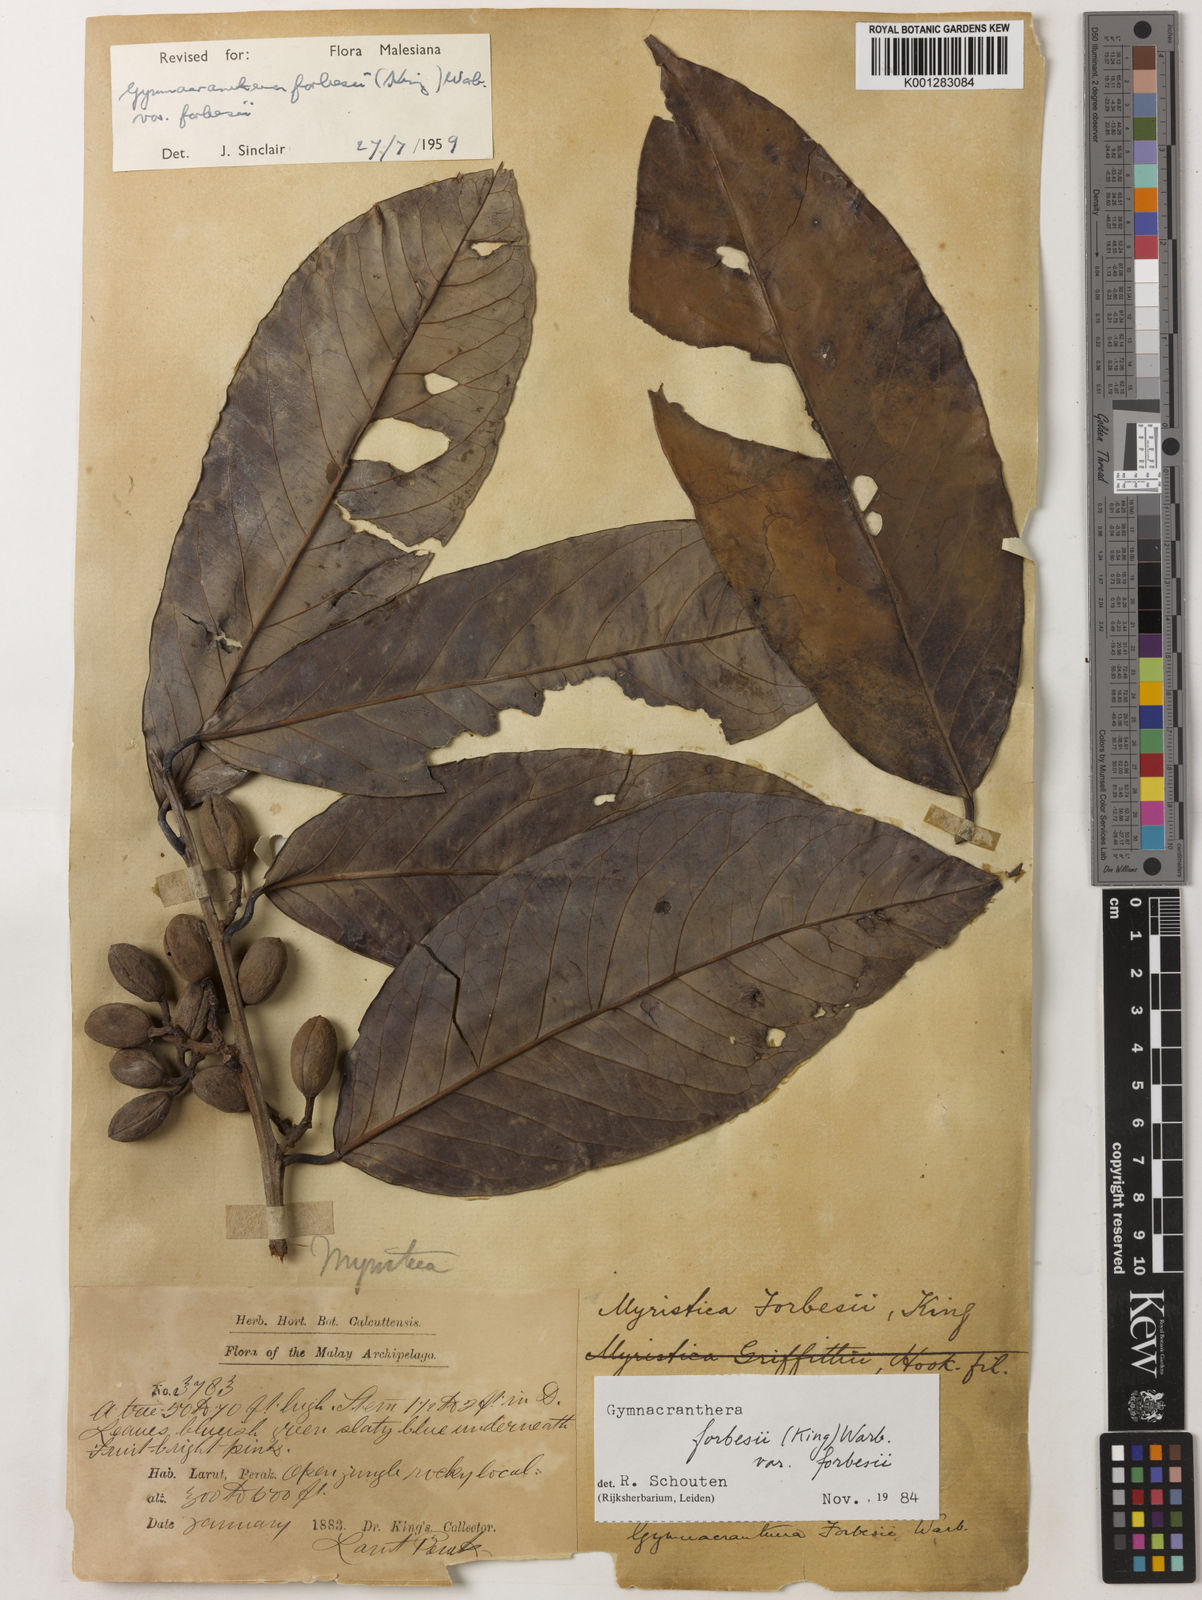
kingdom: Plantae
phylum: Tracheophyta
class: Magnoliopsida
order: Magnoliales
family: Myristicaceae
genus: Gymnacranthera
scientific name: Gymnacranthera forbesii
